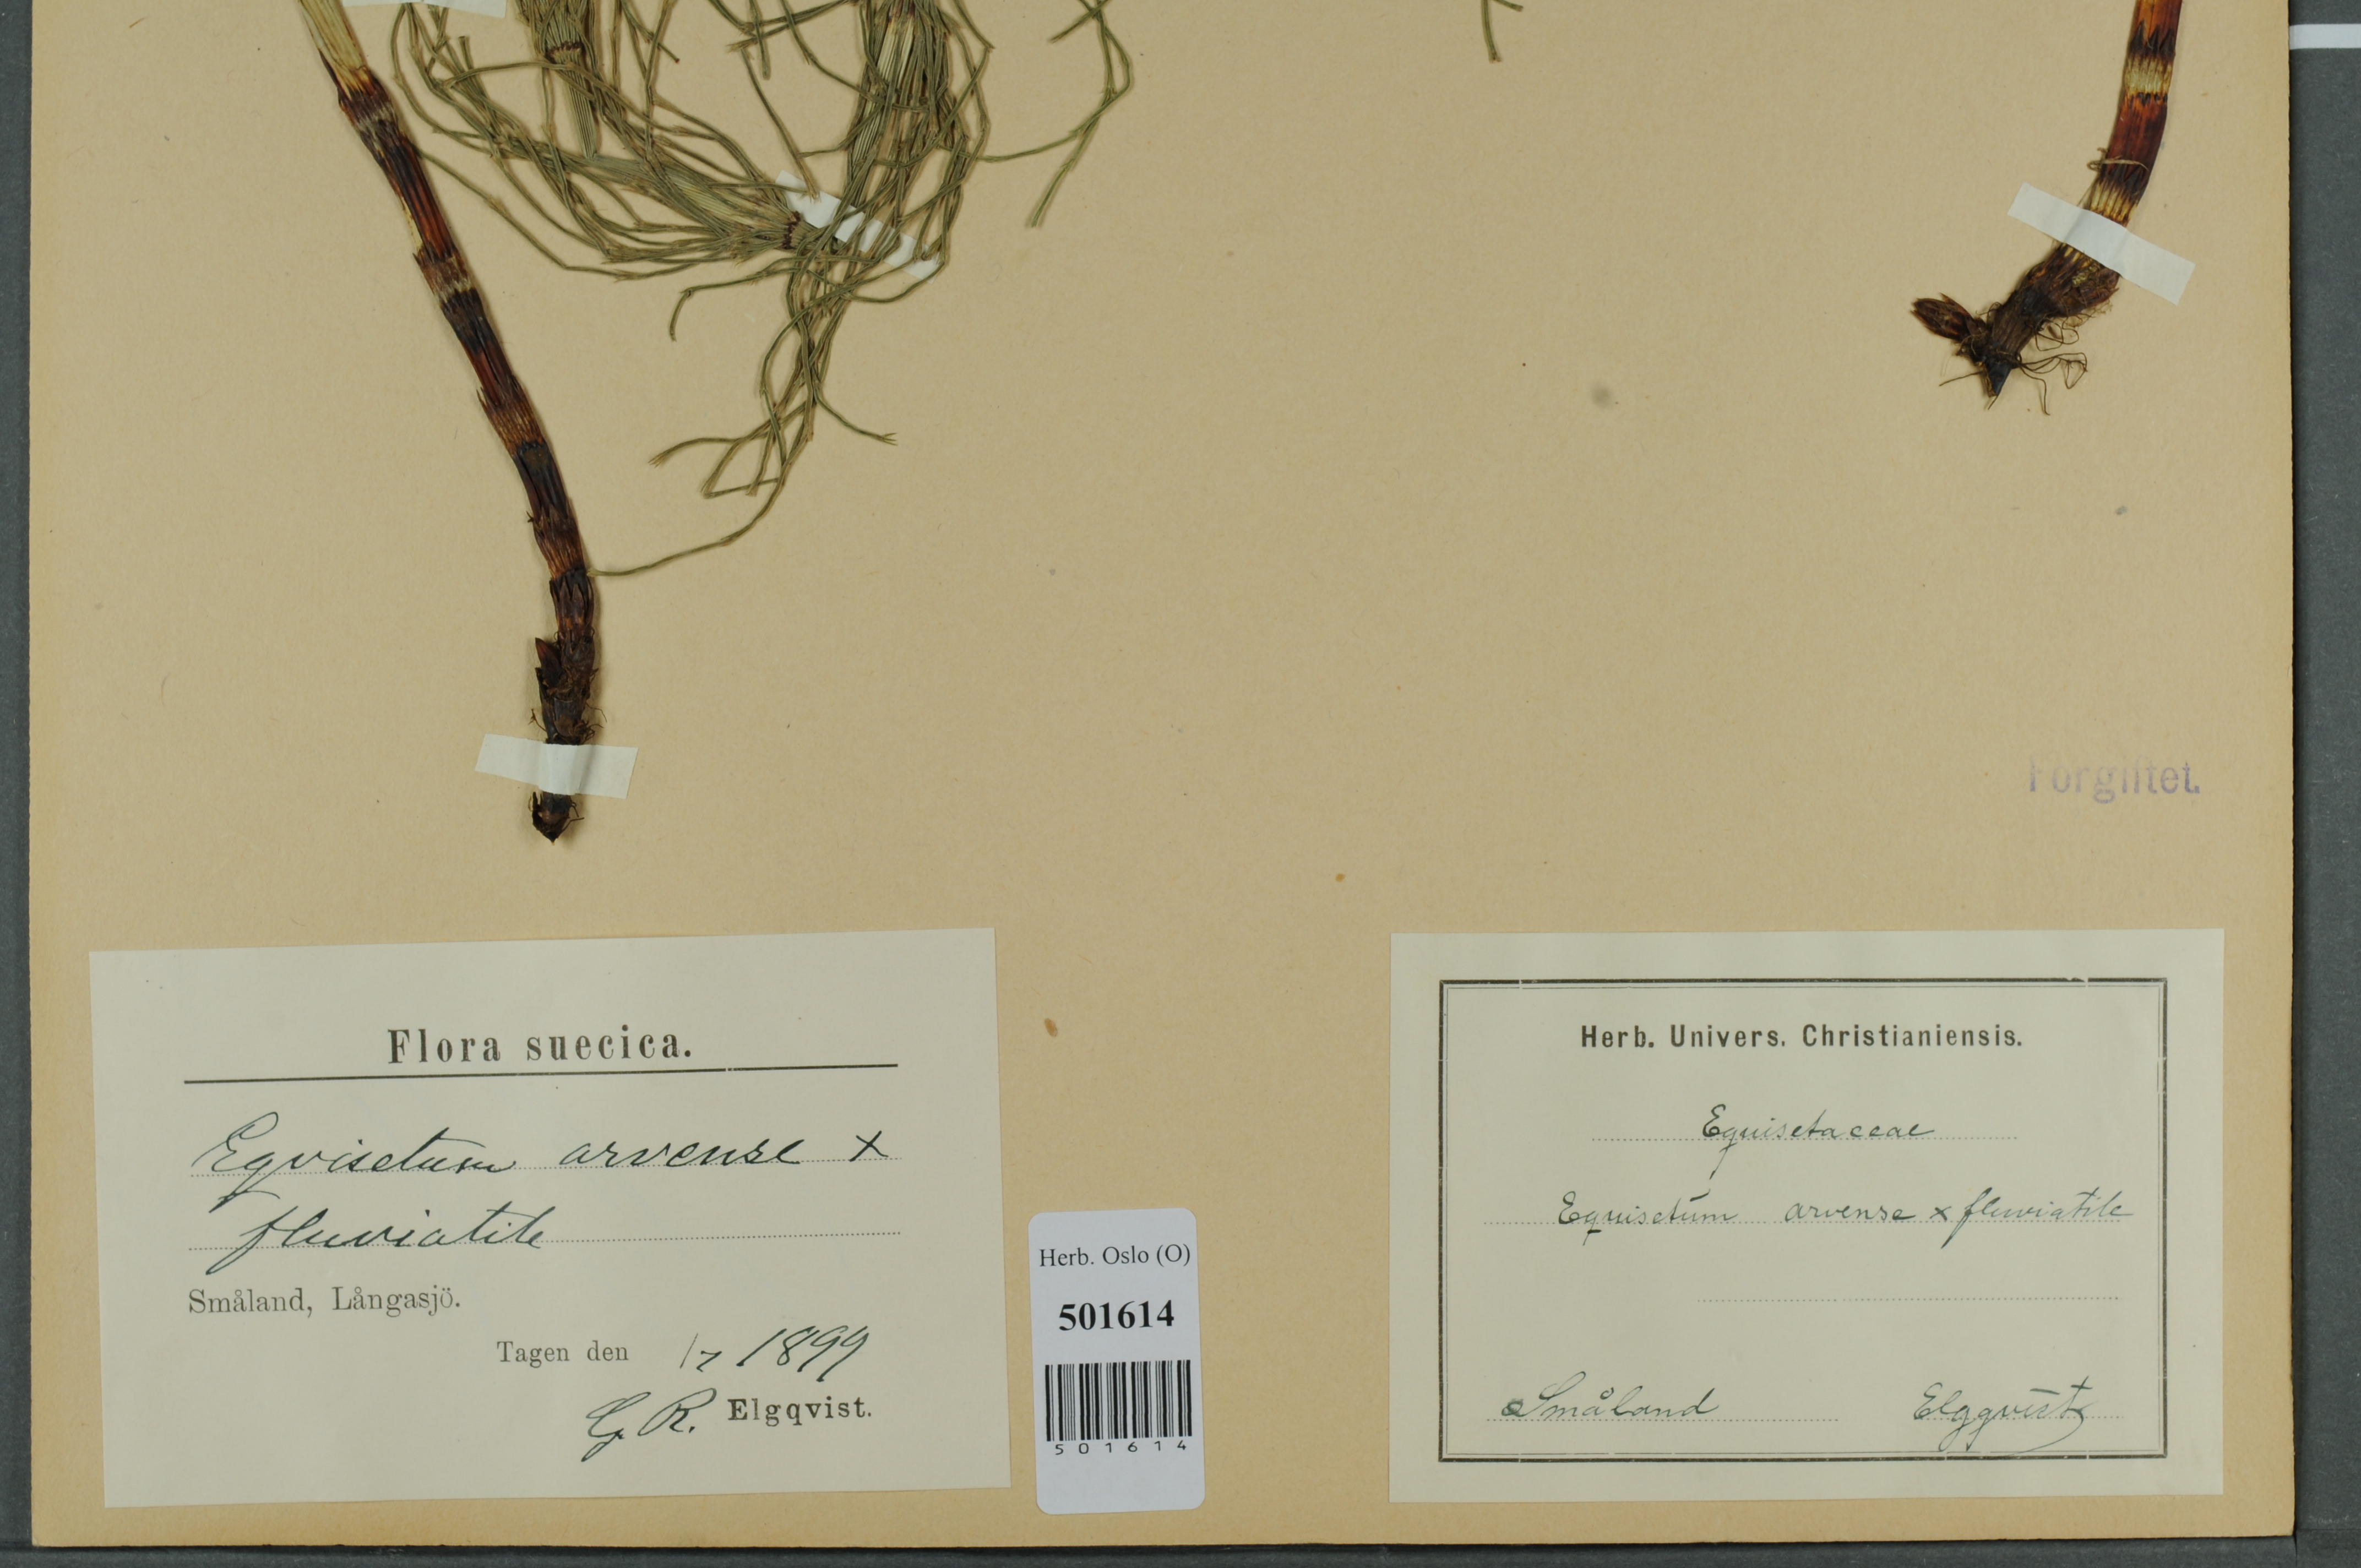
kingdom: Plantae
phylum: Tracheophyta
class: Polypodiopsida
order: Equisetales
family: Equisetaceae
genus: Equisetum
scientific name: Equisetum
